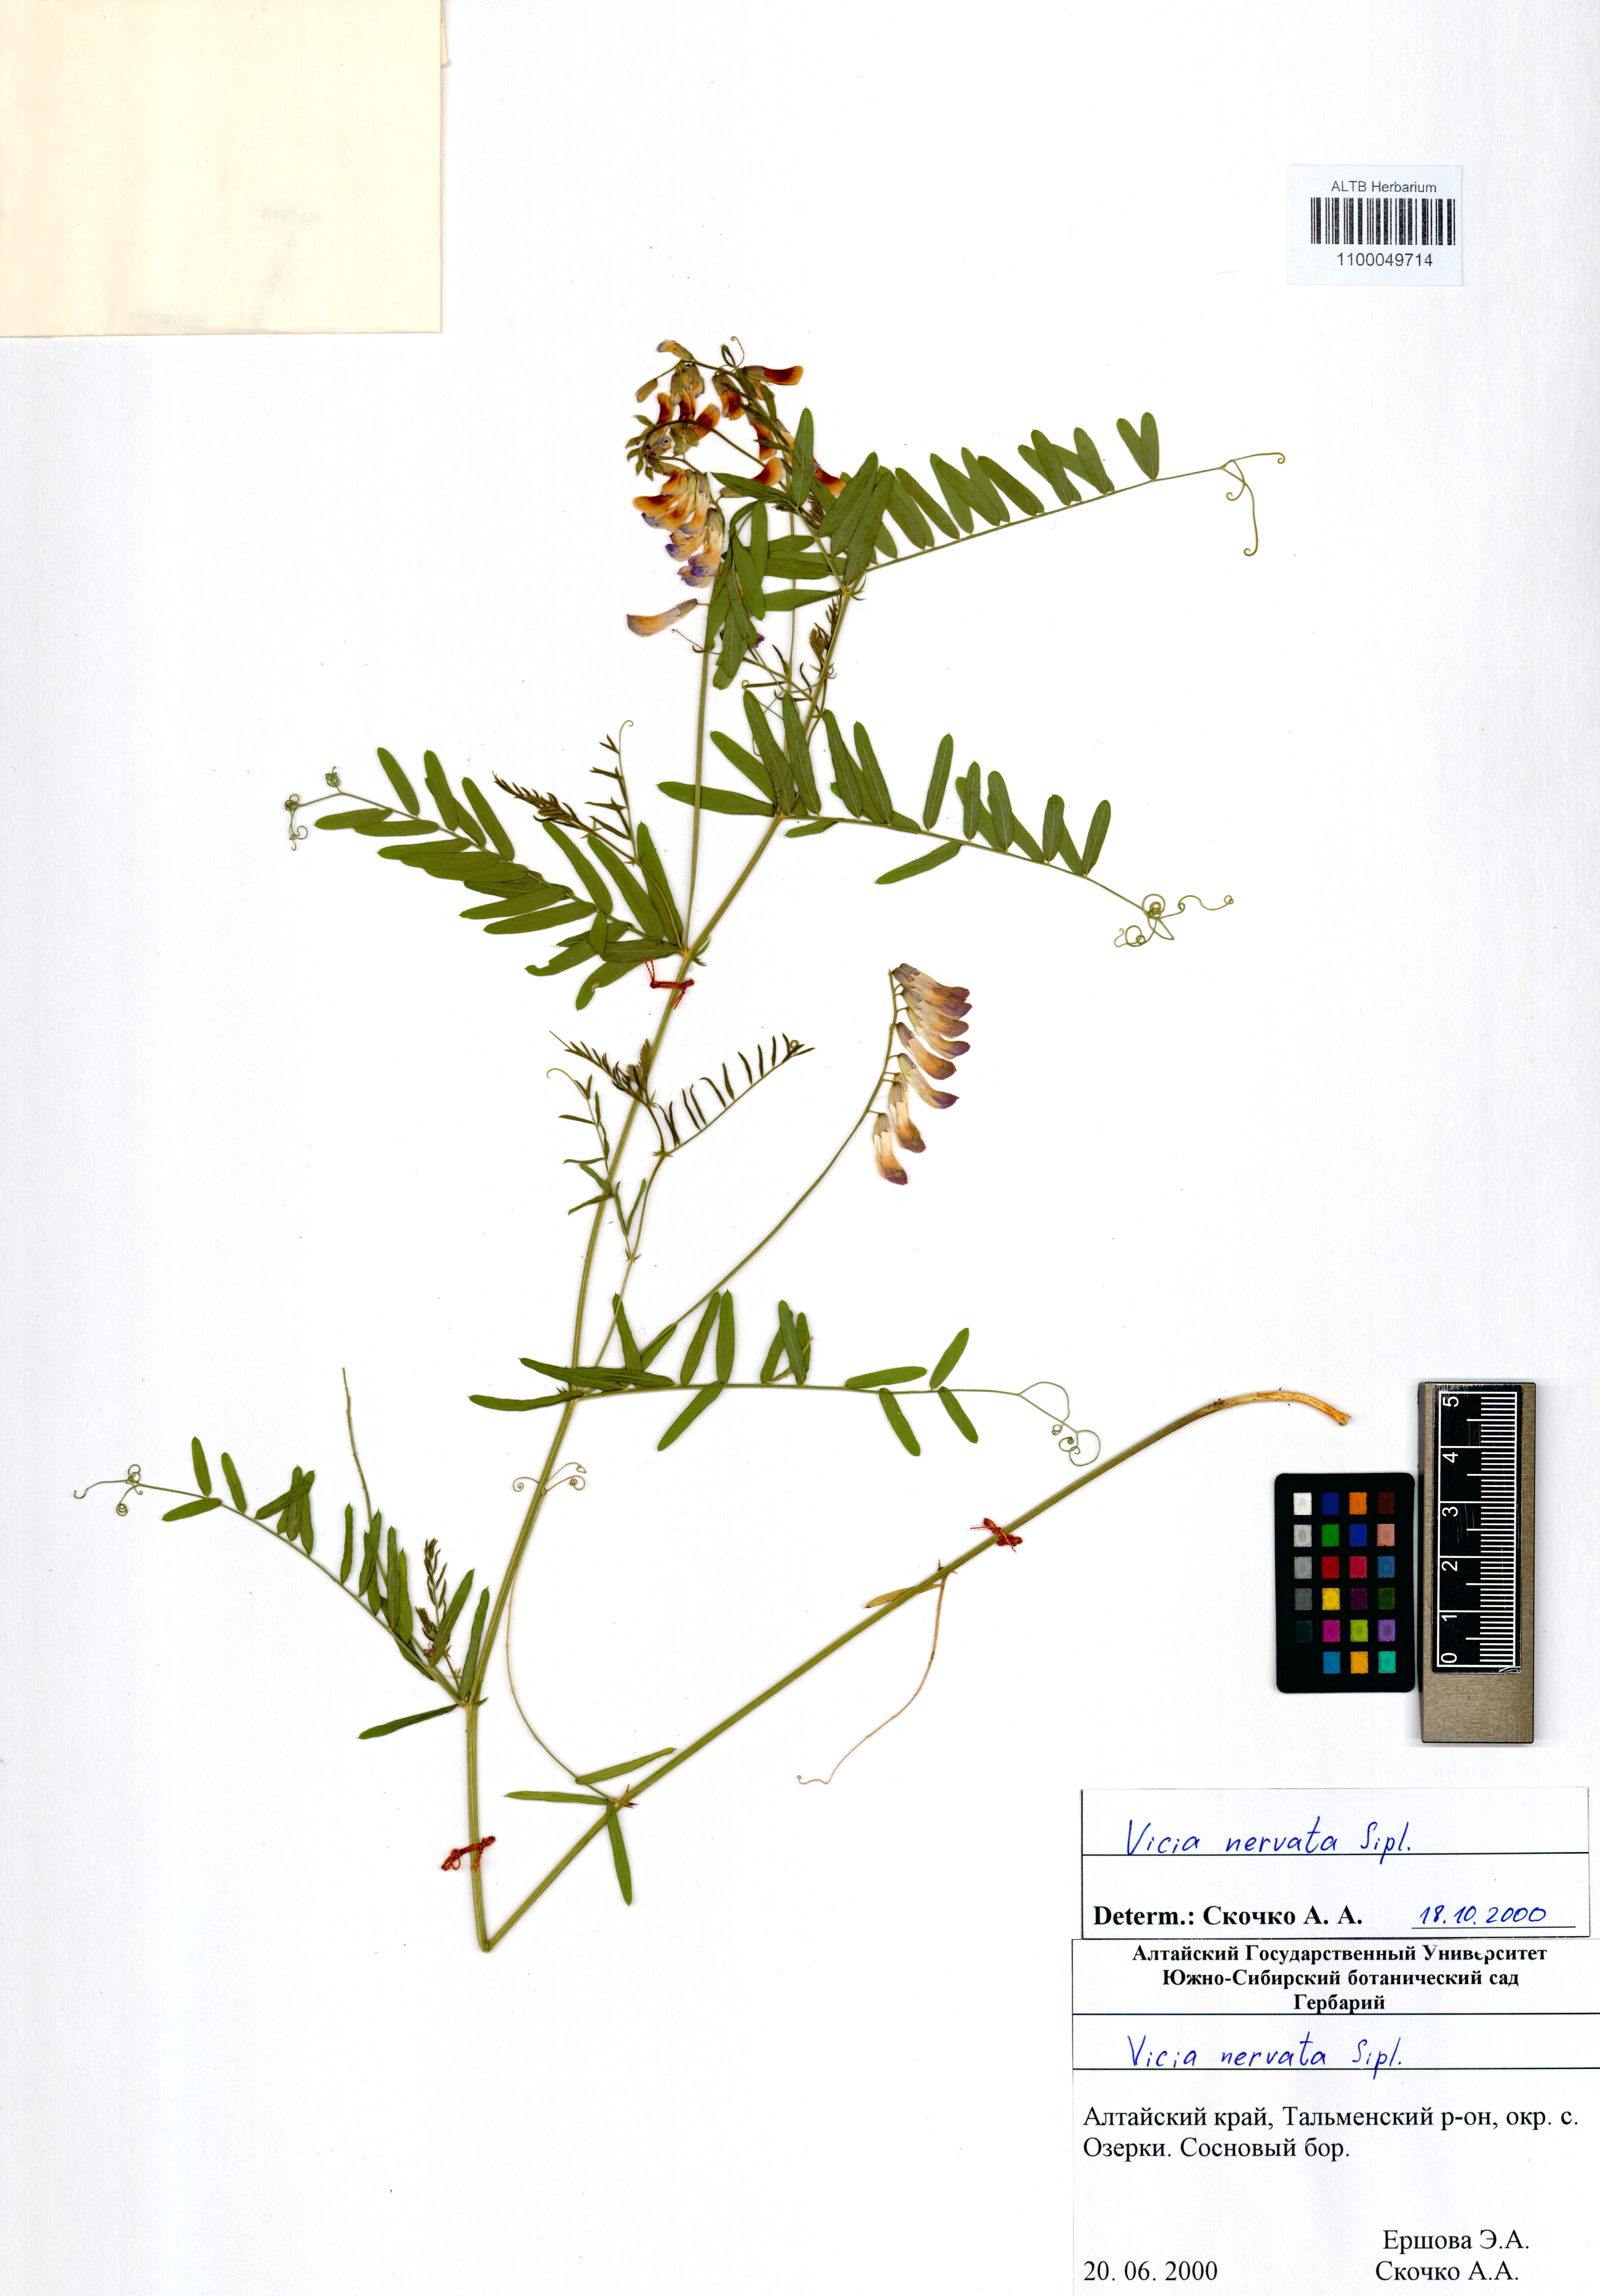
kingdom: Plantae
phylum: Tracheophyta
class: Magnoliopsida
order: Fabales
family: Fabaceae
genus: Vicia
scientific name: Vicia multicaulis
